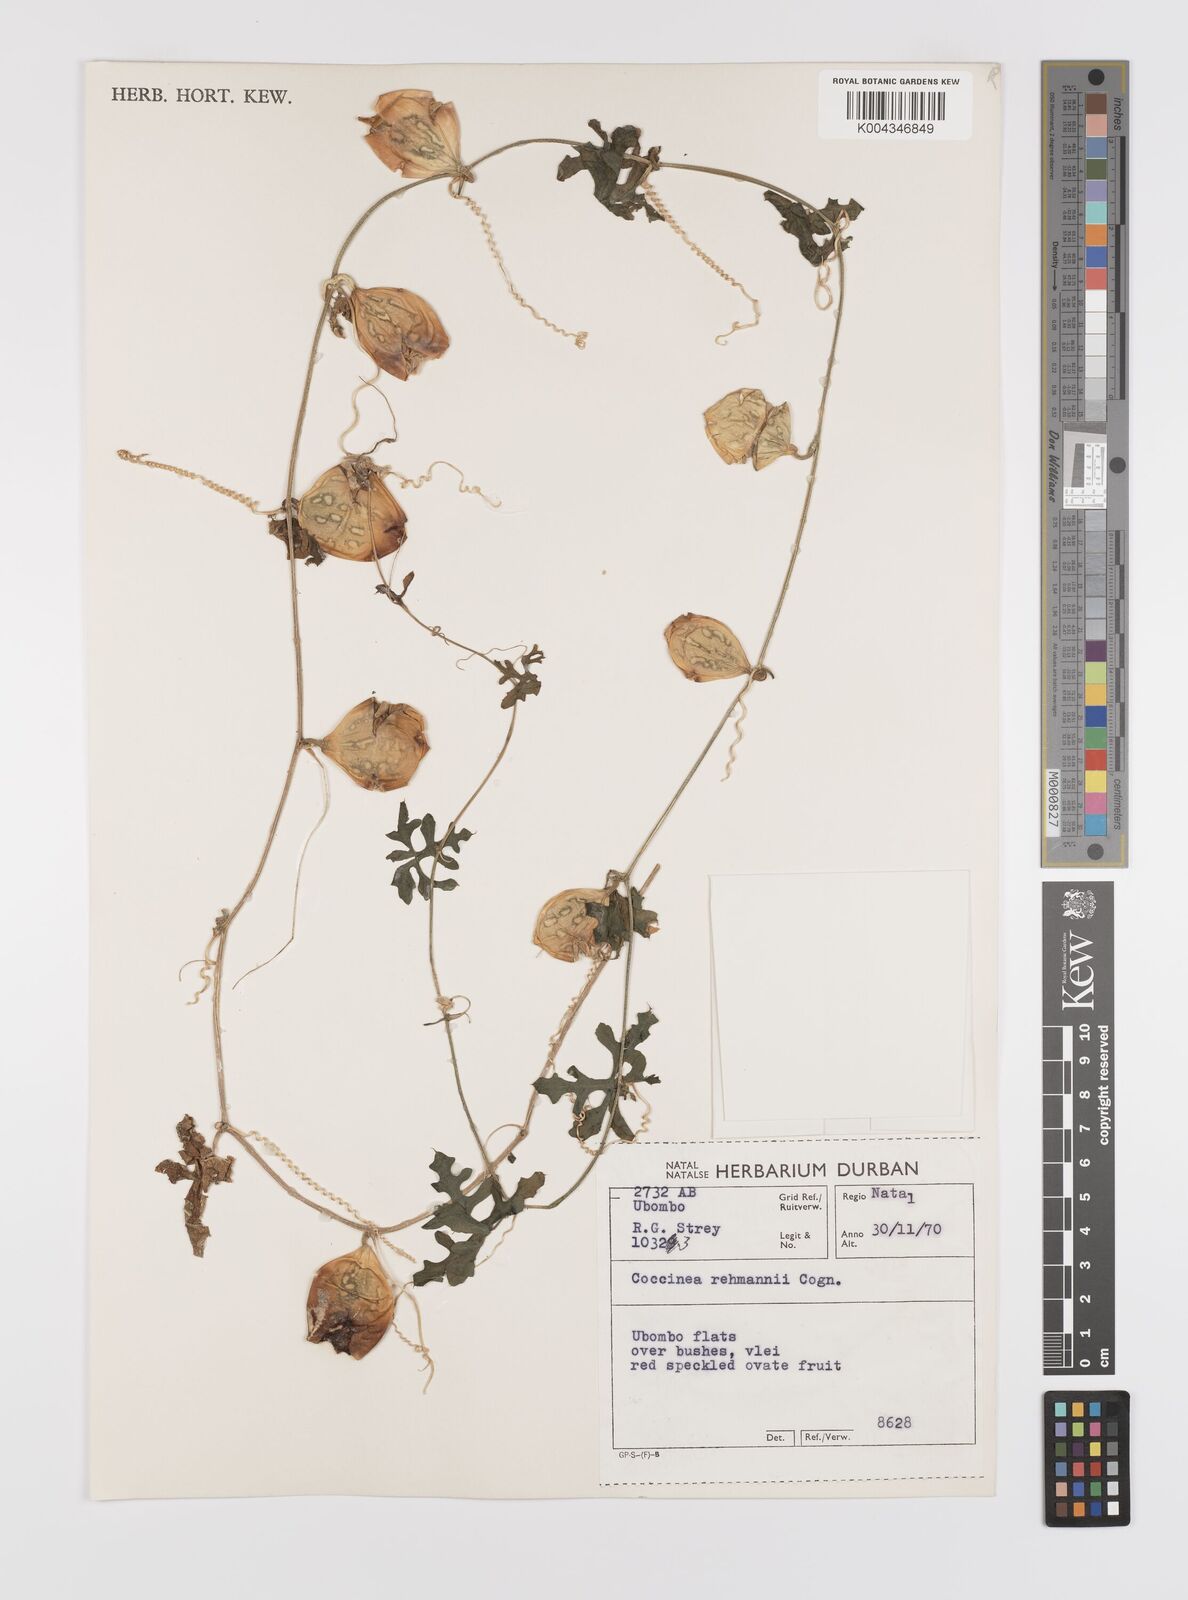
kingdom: Plantae
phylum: Tracheophyta
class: Magnoliopsida
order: Cucurbitales
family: Cucurbitaceae
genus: Coccinia
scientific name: Coccinia rehmannii
